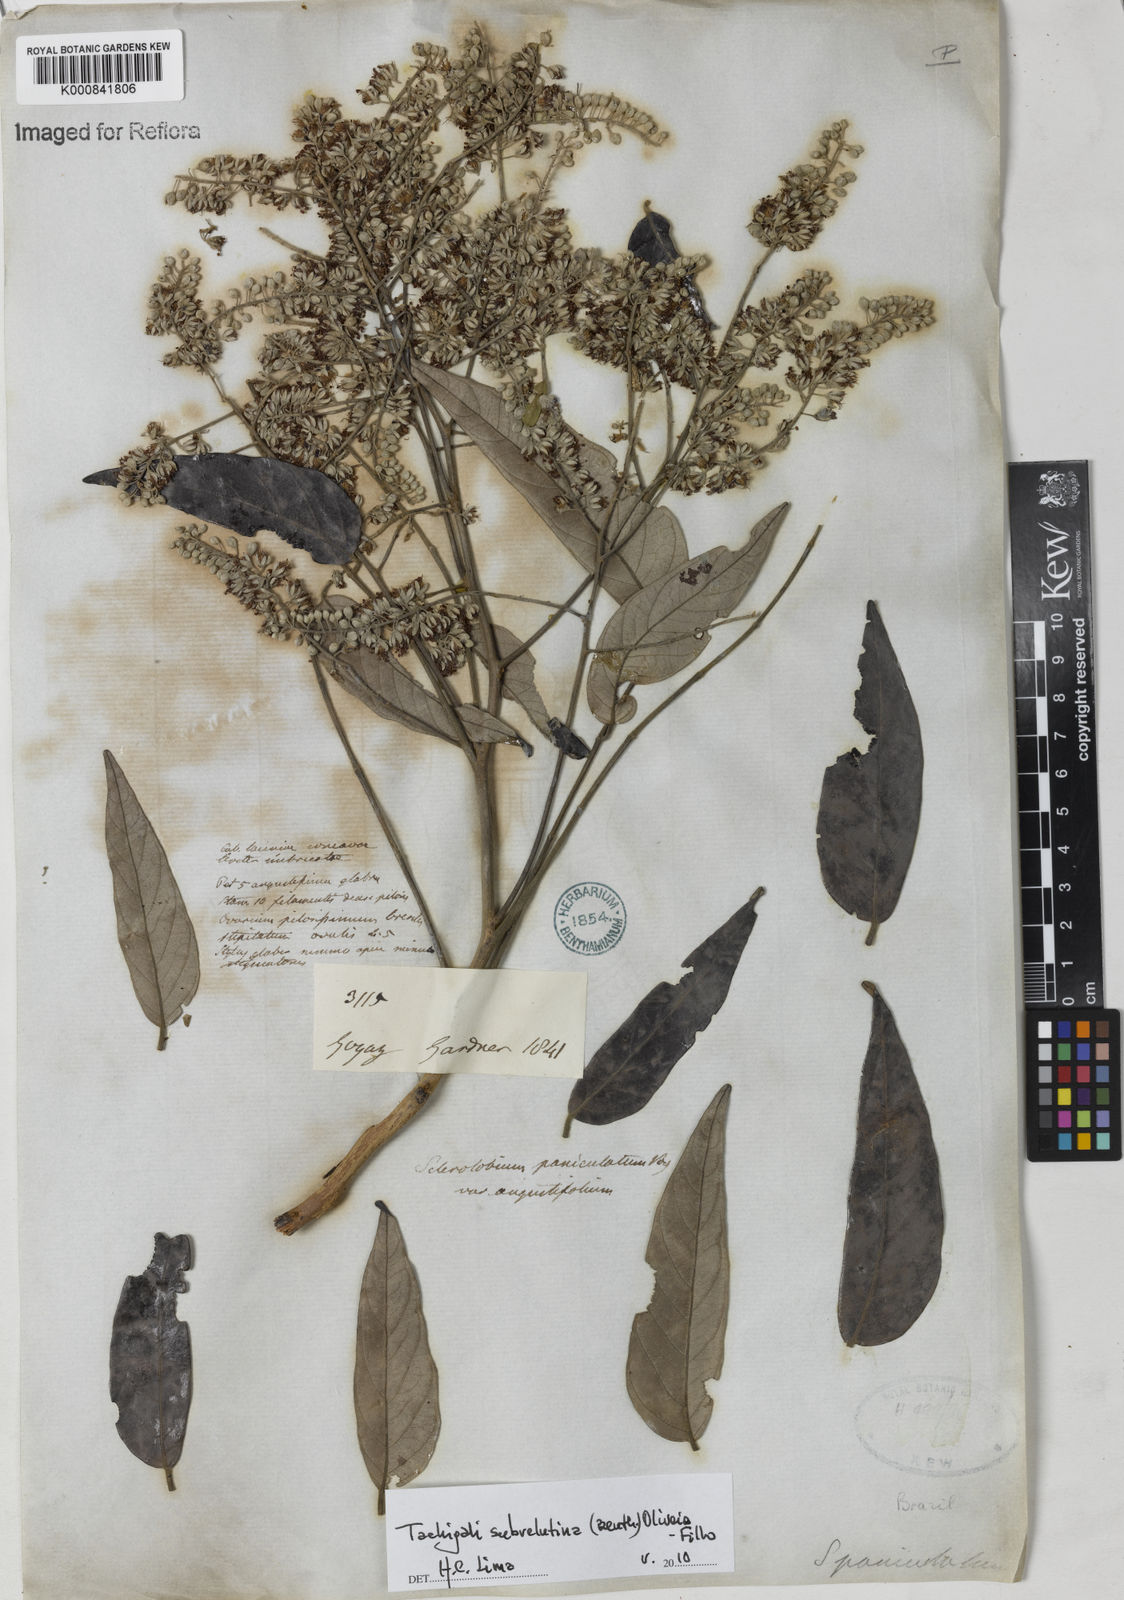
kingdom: Plantae
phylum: Tracheophyta
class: Magnoliopsida
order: Fabales
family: Fabaceae
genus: Tachigali
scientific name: Tachigali subvelutina
